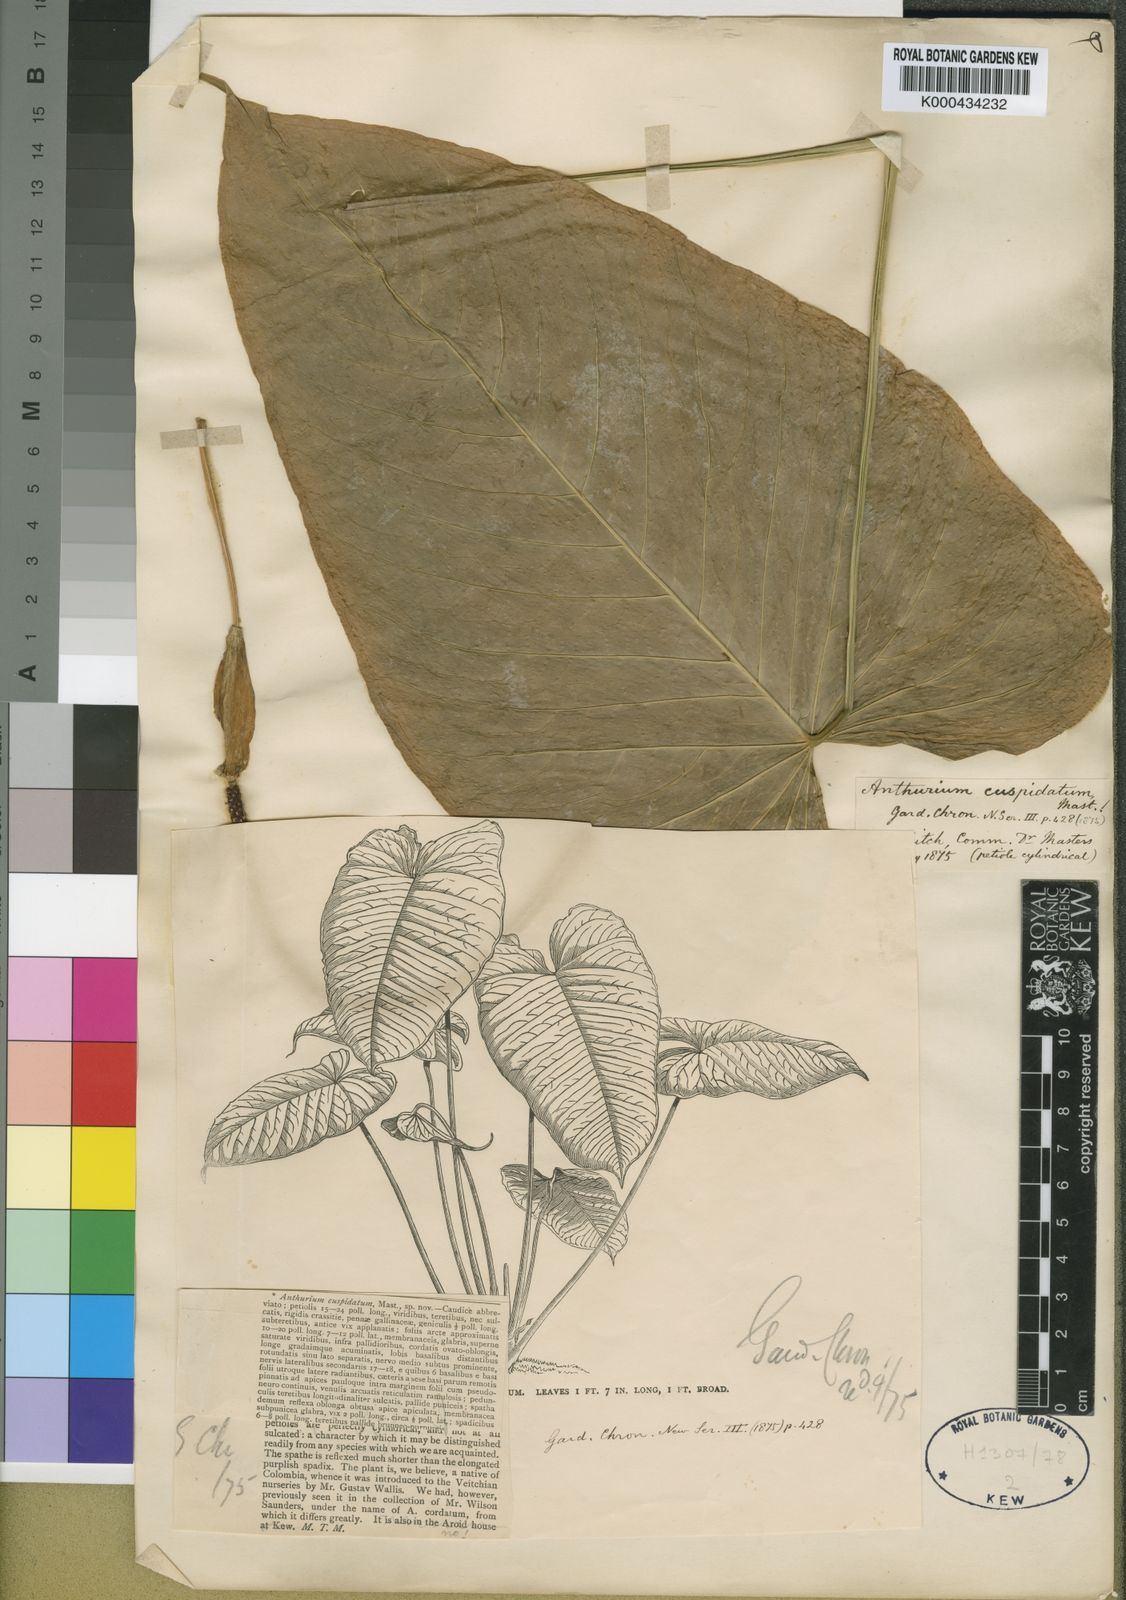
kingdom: Plantae
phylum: Tracheophyta
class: Liliopsida
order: Alismatales
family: Araceae
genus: Anthurium
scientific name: Anthurium cuspidatum
